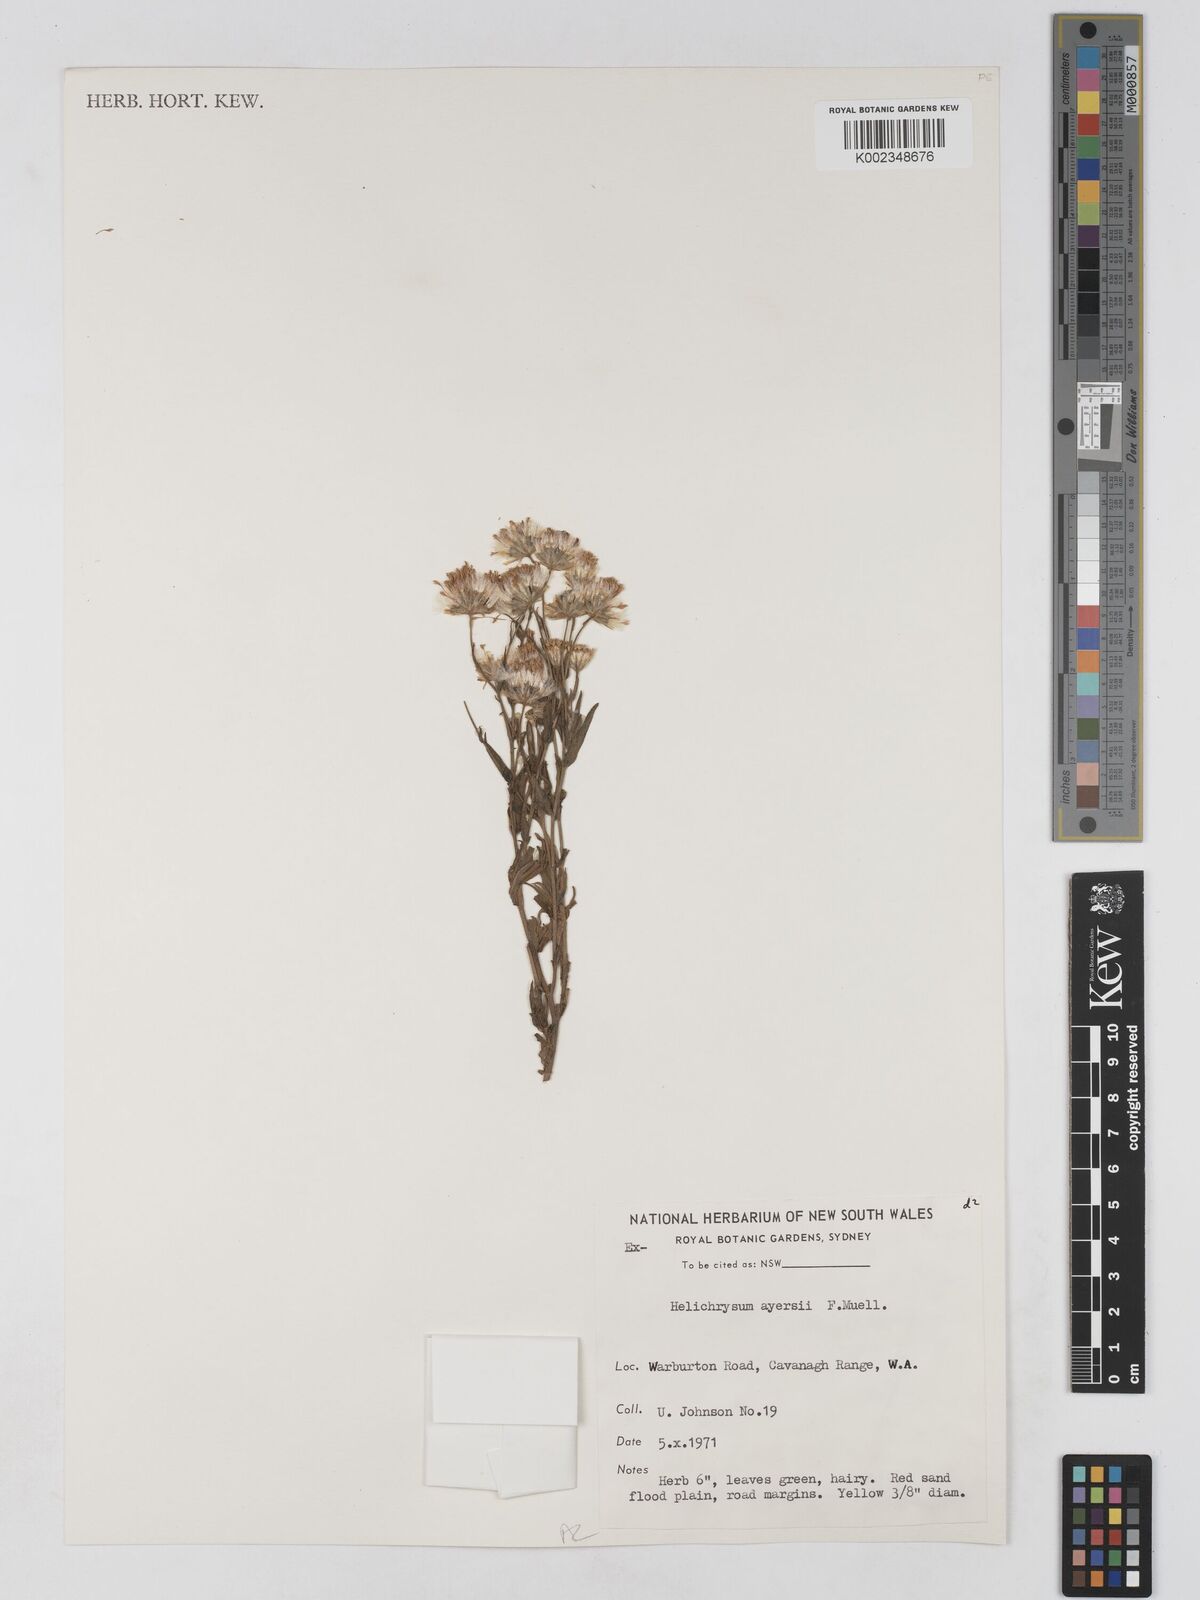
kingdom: Plantae
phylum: Tracheophyta
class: Magnoliopsida
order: Asterales
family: Asteraceae
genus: Schoenia
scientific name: Schoenia ayersii
